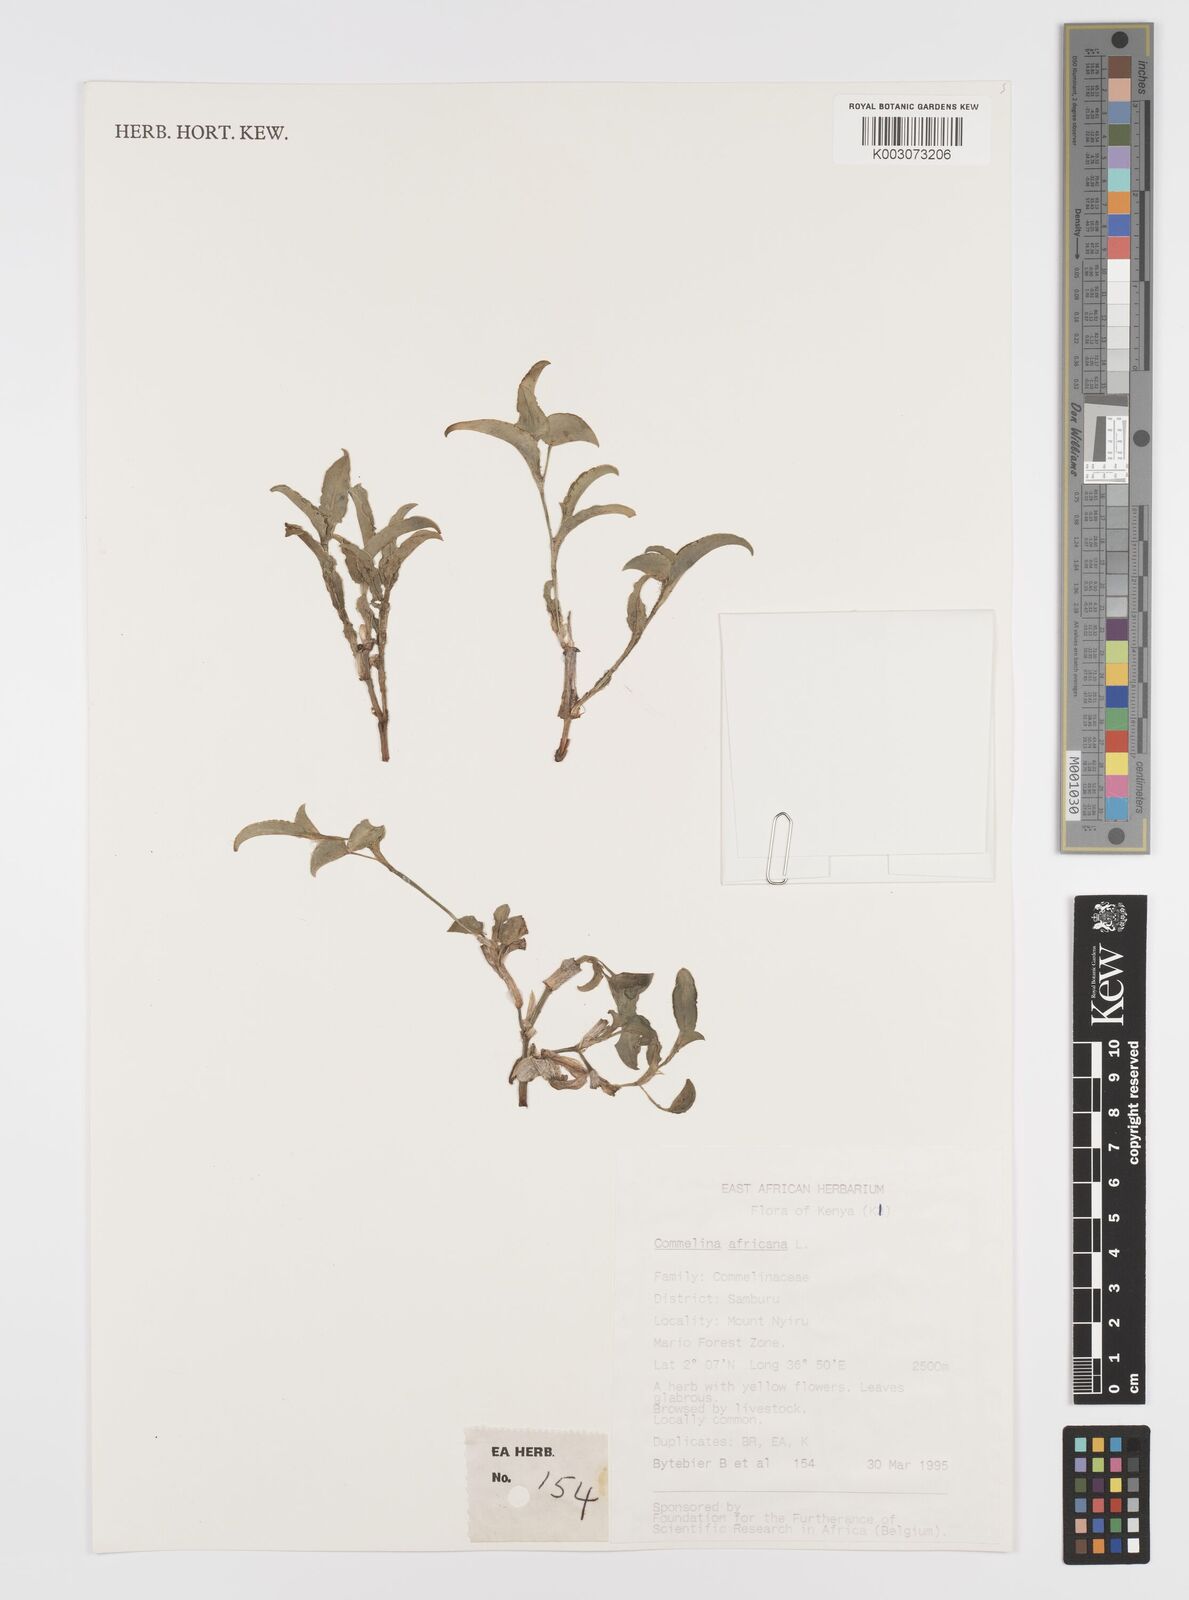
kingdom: Plantae
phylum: Tracheophyta
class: Liliopsida
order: Commelinales
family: Commelinaceae
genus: Commelina
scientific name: Commelina africana
